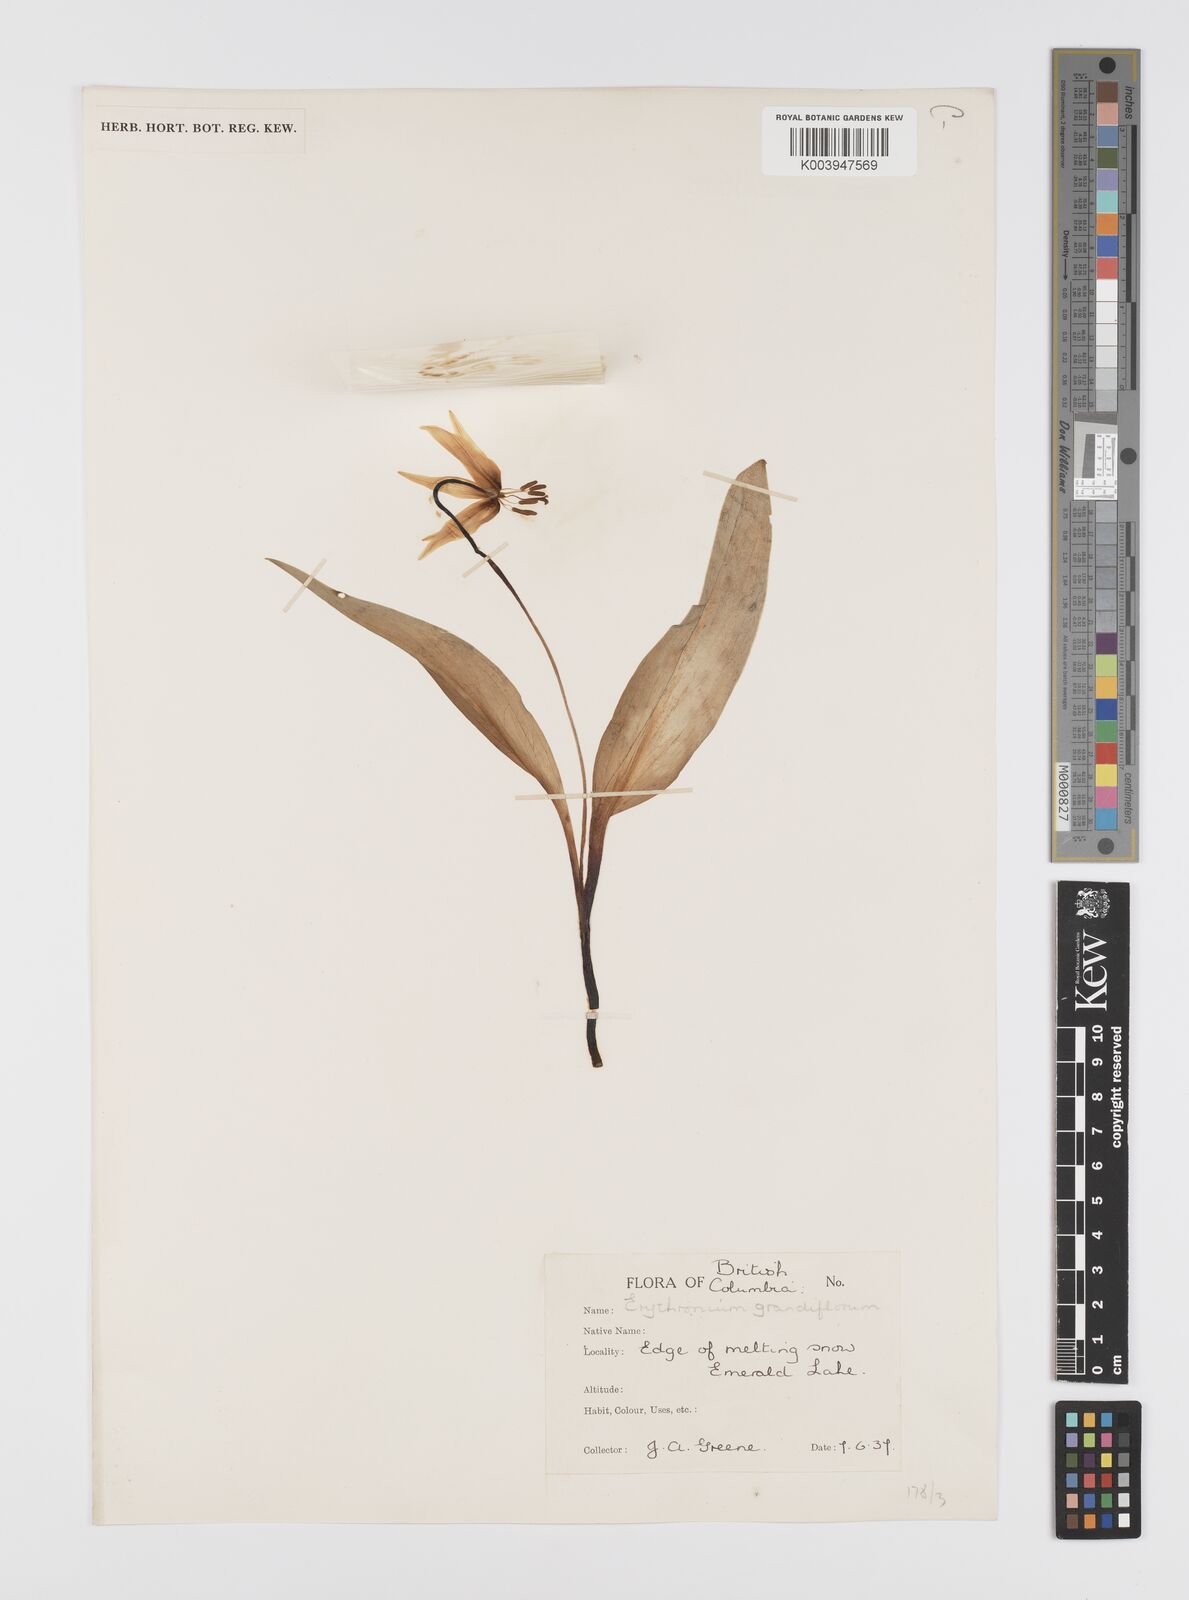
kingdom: Plantae
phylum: Tracheophyta
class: Liliopsida
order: Liliales
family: Liliaceae
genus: Erythronium
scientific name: Erythronium grandiflorum
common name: Avalanche-lily
